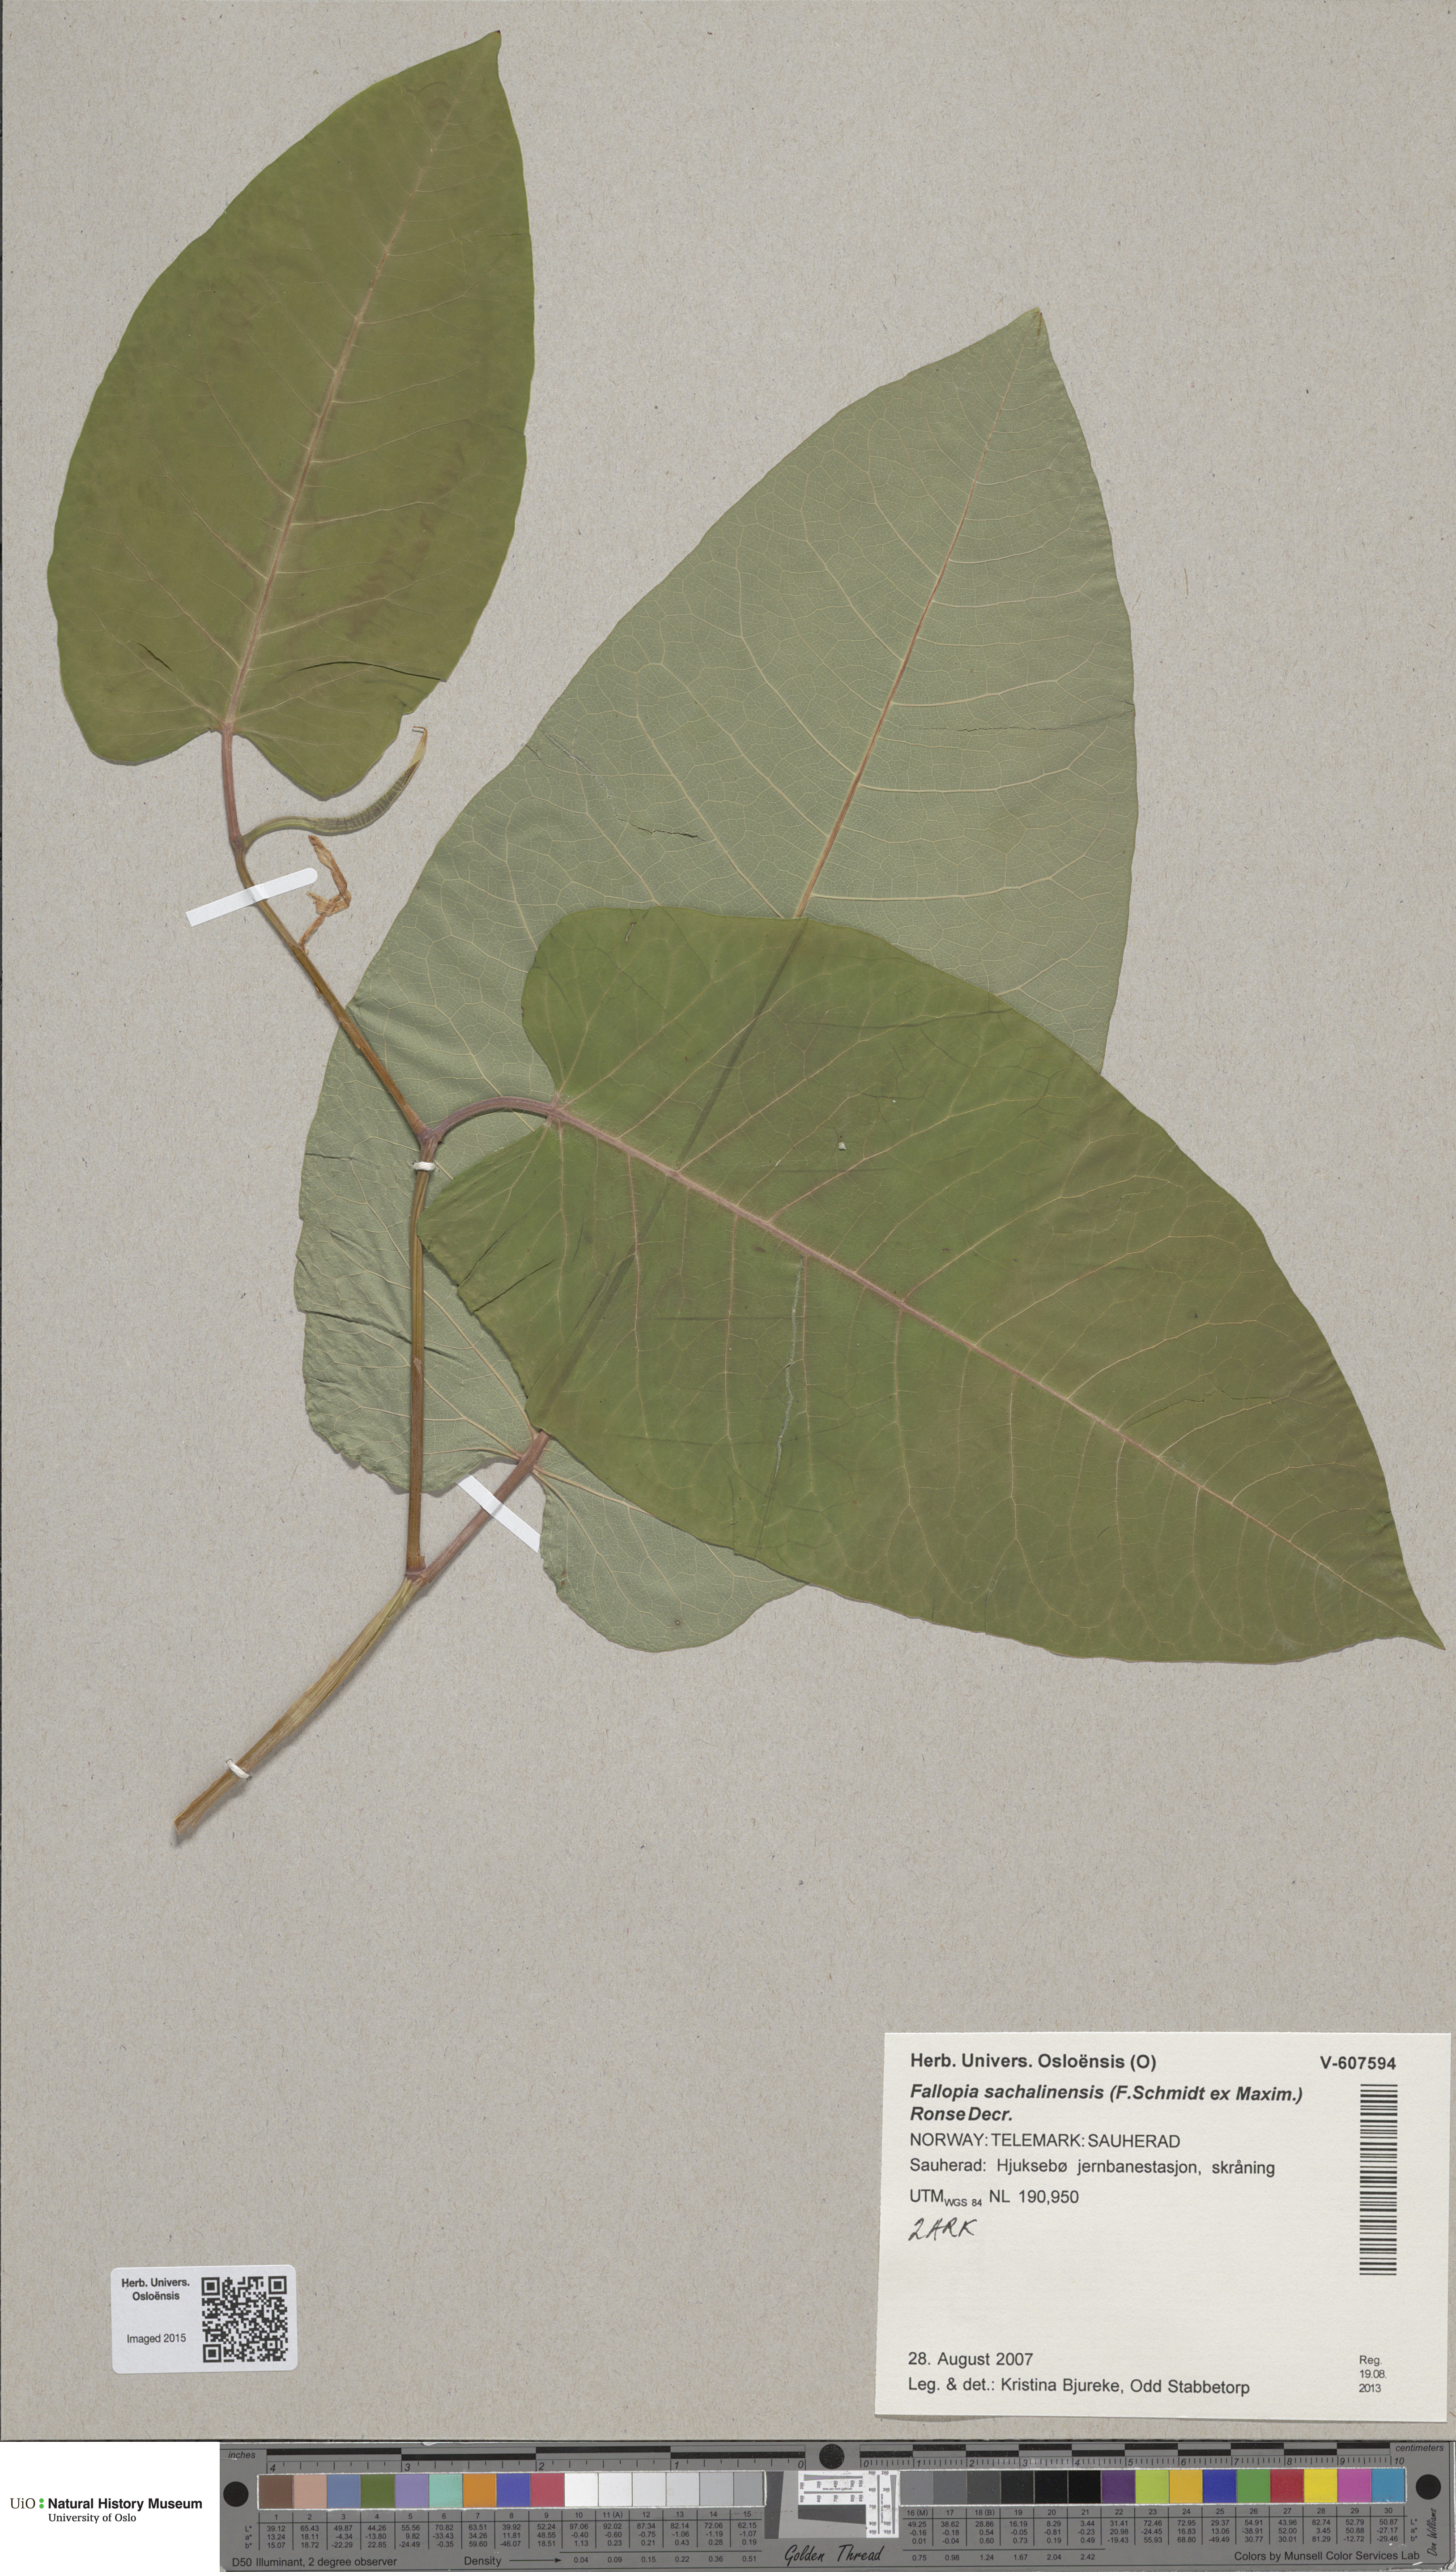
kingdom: Plantae
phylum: Tracheophyta
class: Magnoliopsida
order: Caryophyllales
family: Polygonaceae
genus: Reynoutria
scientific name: Reynoutria sachalinensis
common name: Giant knotweed
